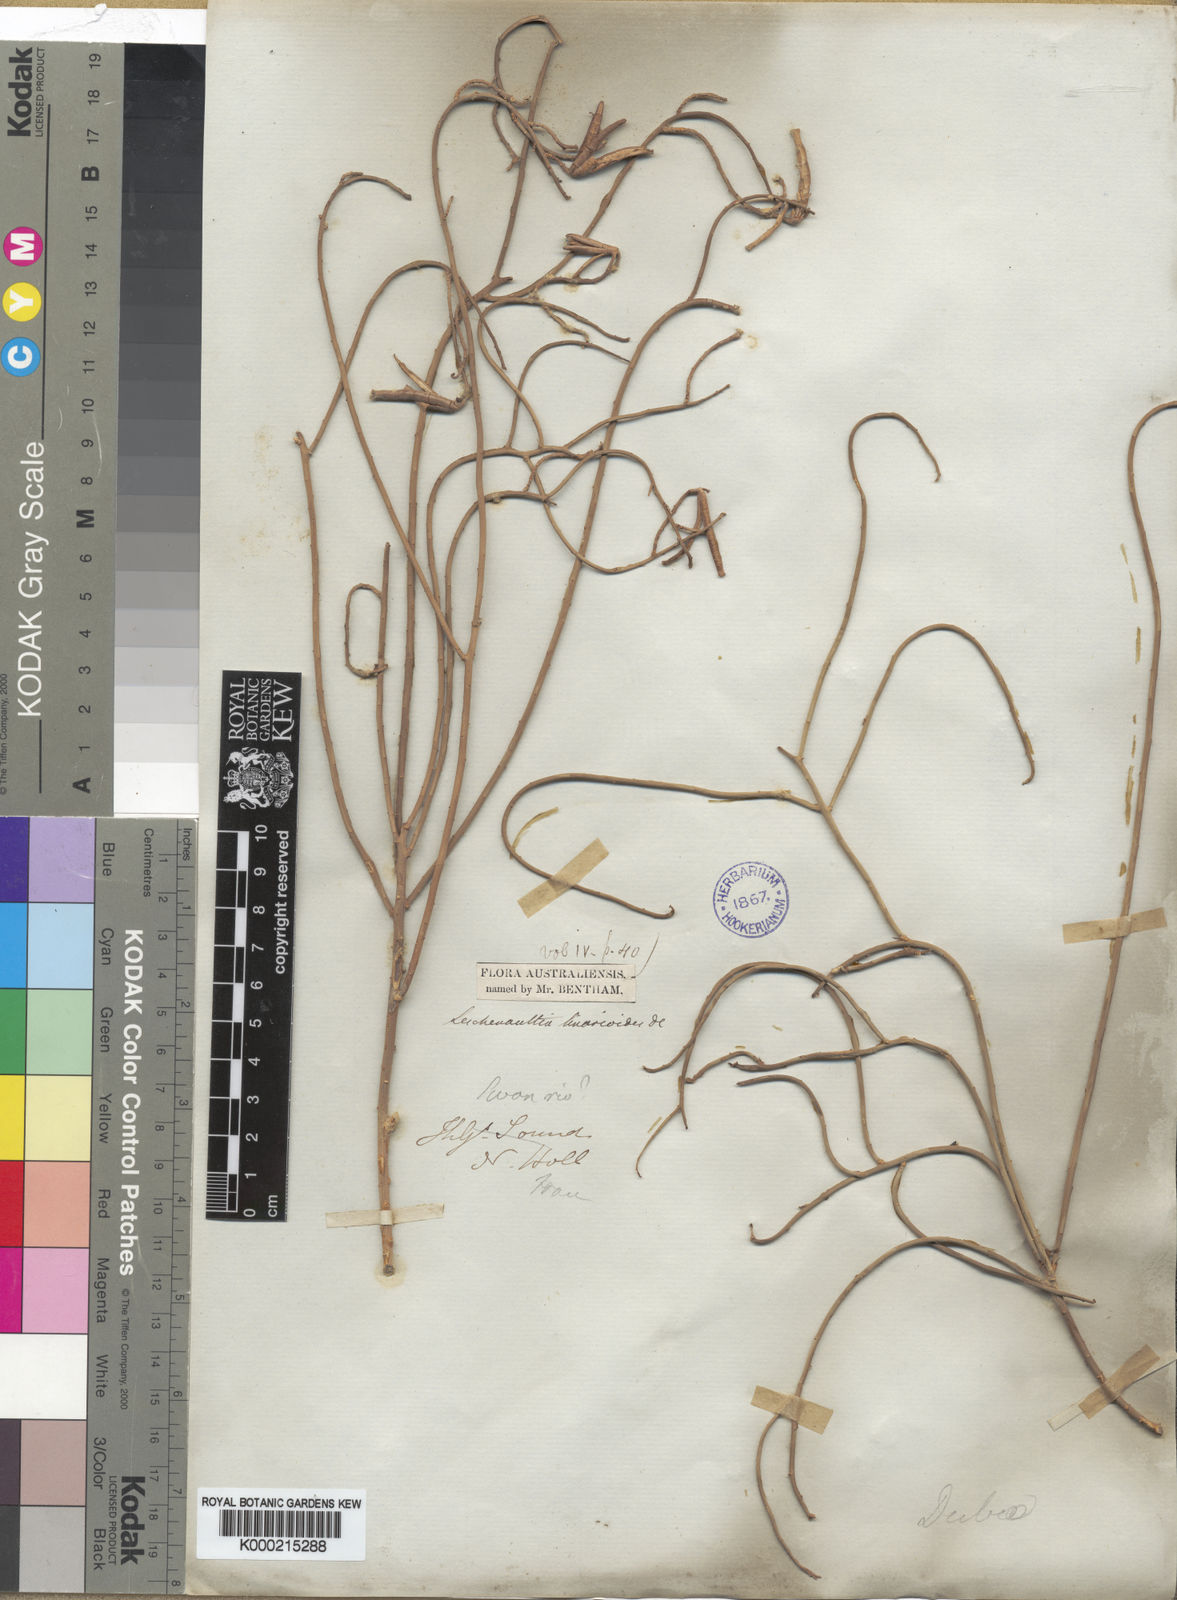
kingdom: Plantae
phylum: Tracheophyta
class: Magnoliopsida
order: Asterales
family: Goodeniaceae
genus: Leschenaultia
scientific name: Leschenaultia
